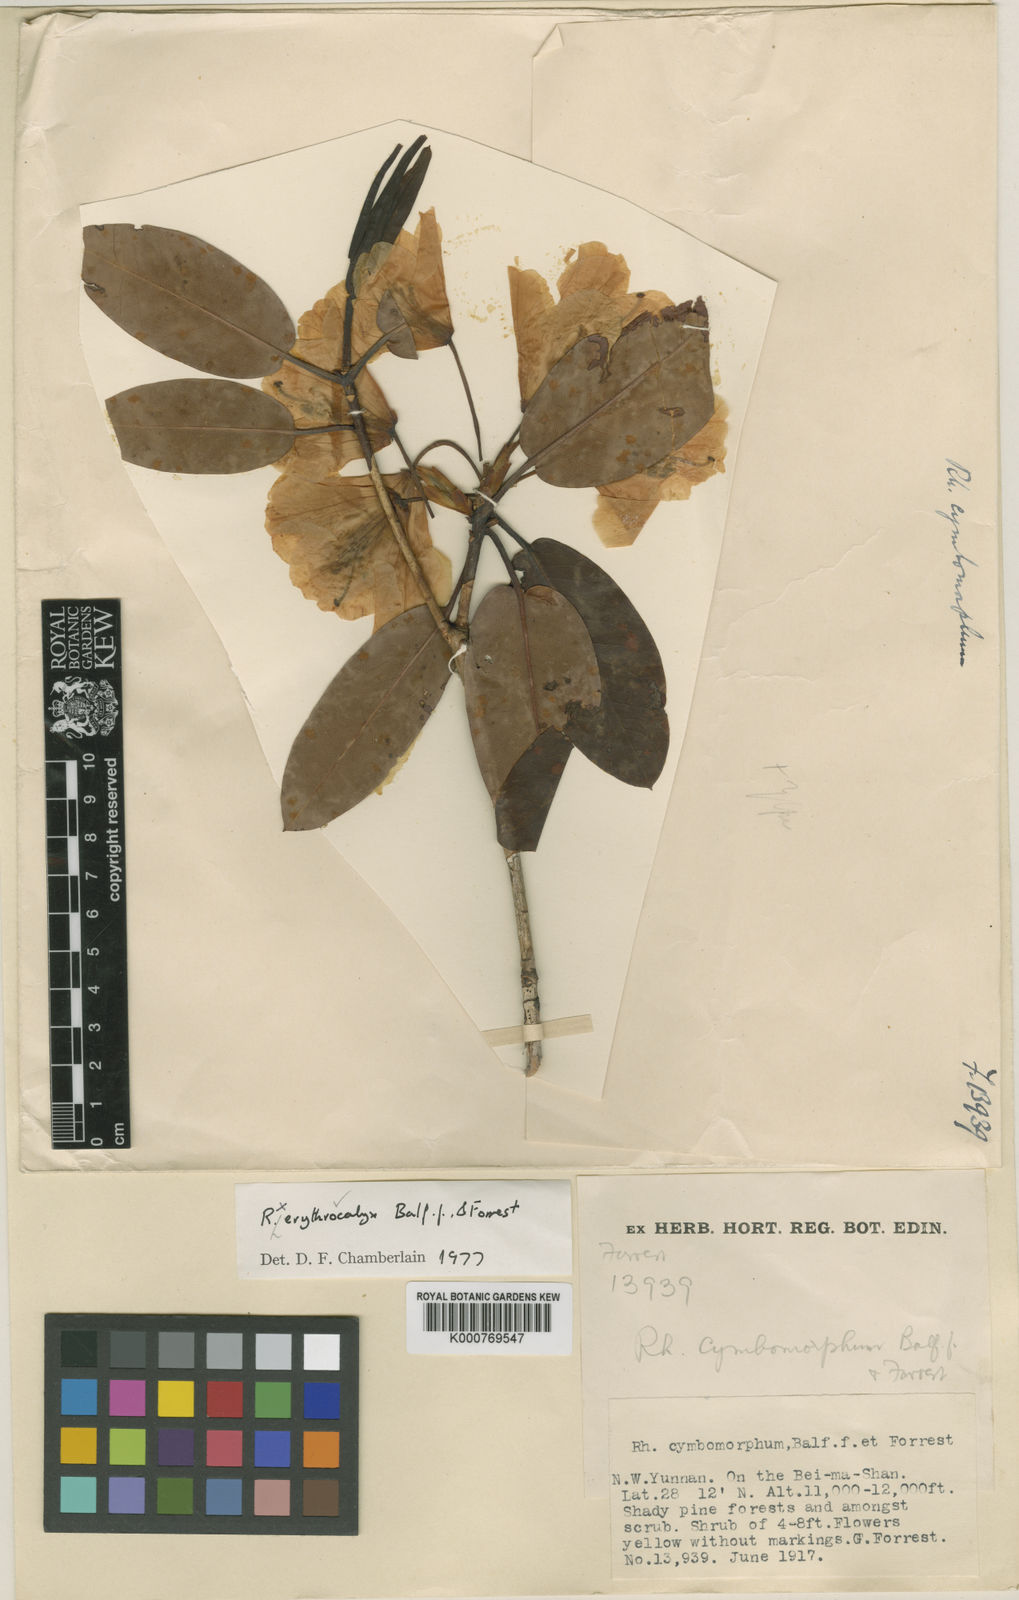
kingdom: Plantae
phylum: Tracheophyta
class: Magnoliopsida
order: Ericales
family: Ericaceae
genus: Rhododendron
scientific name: Rhododendron erythrocalyx
